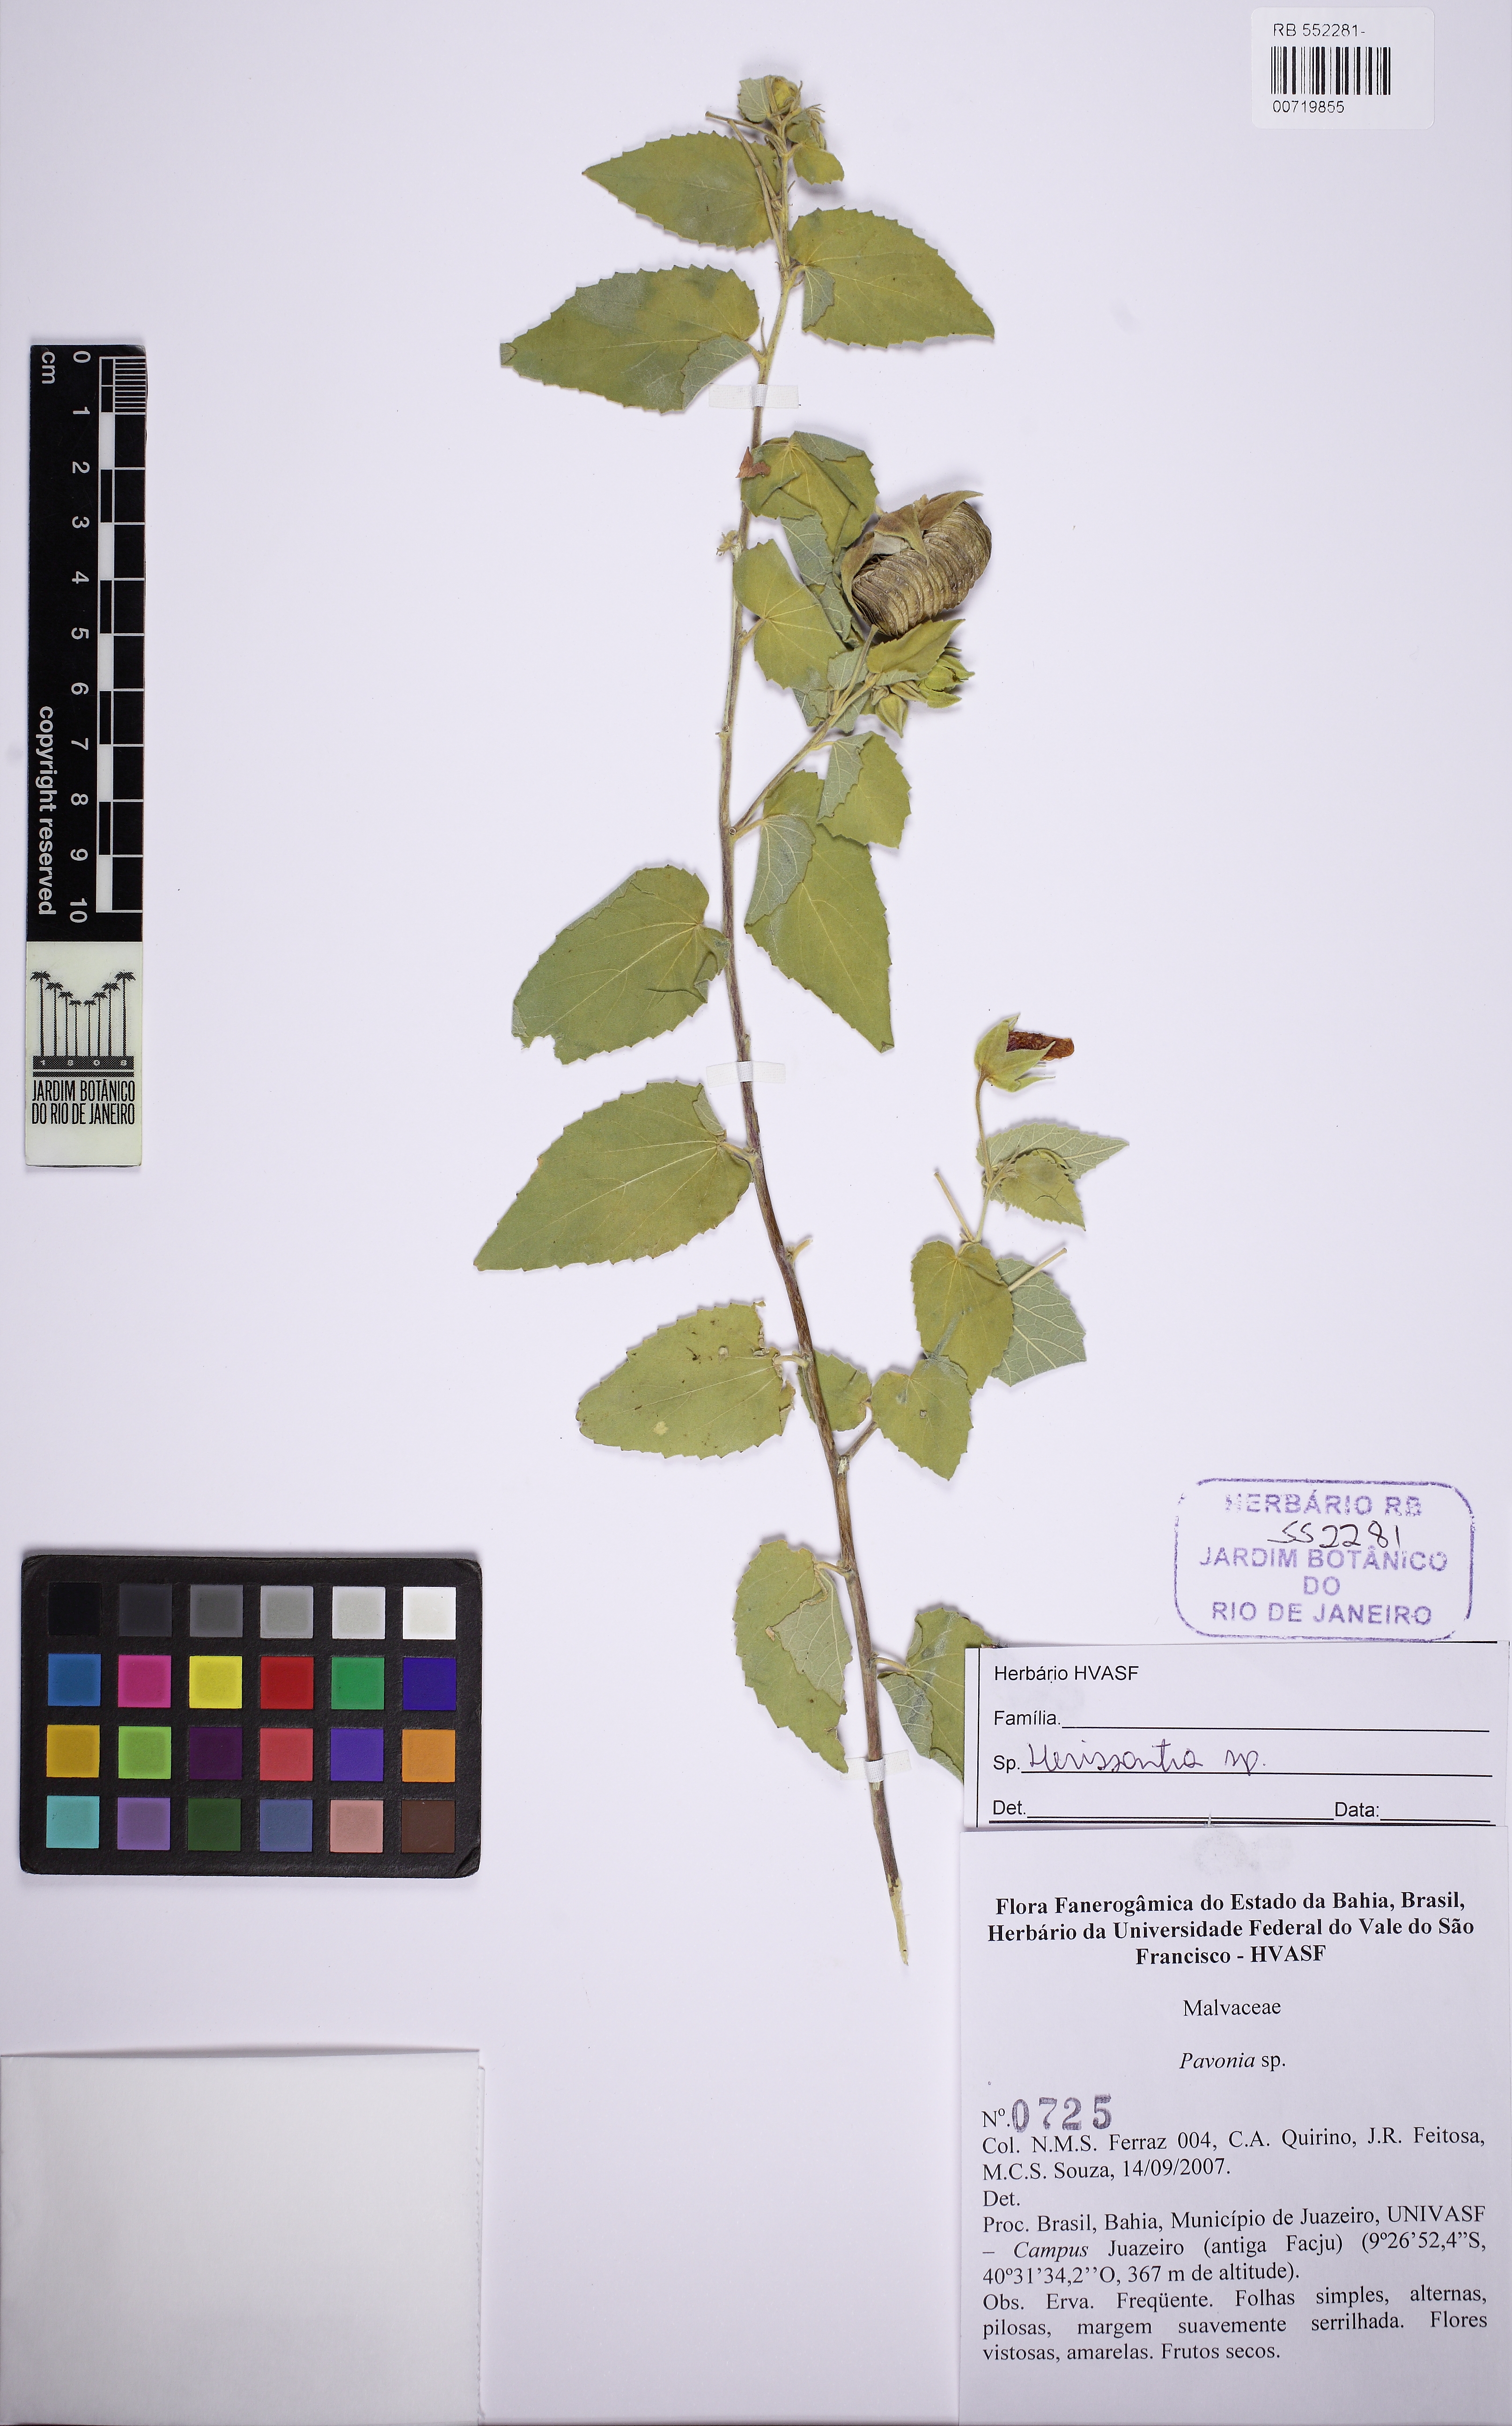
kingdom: Plantae
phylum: Tracheophyta
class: Magnoliopsida
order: Malvales
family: Malvaceae
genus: Herissantia
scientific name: Herissantia
